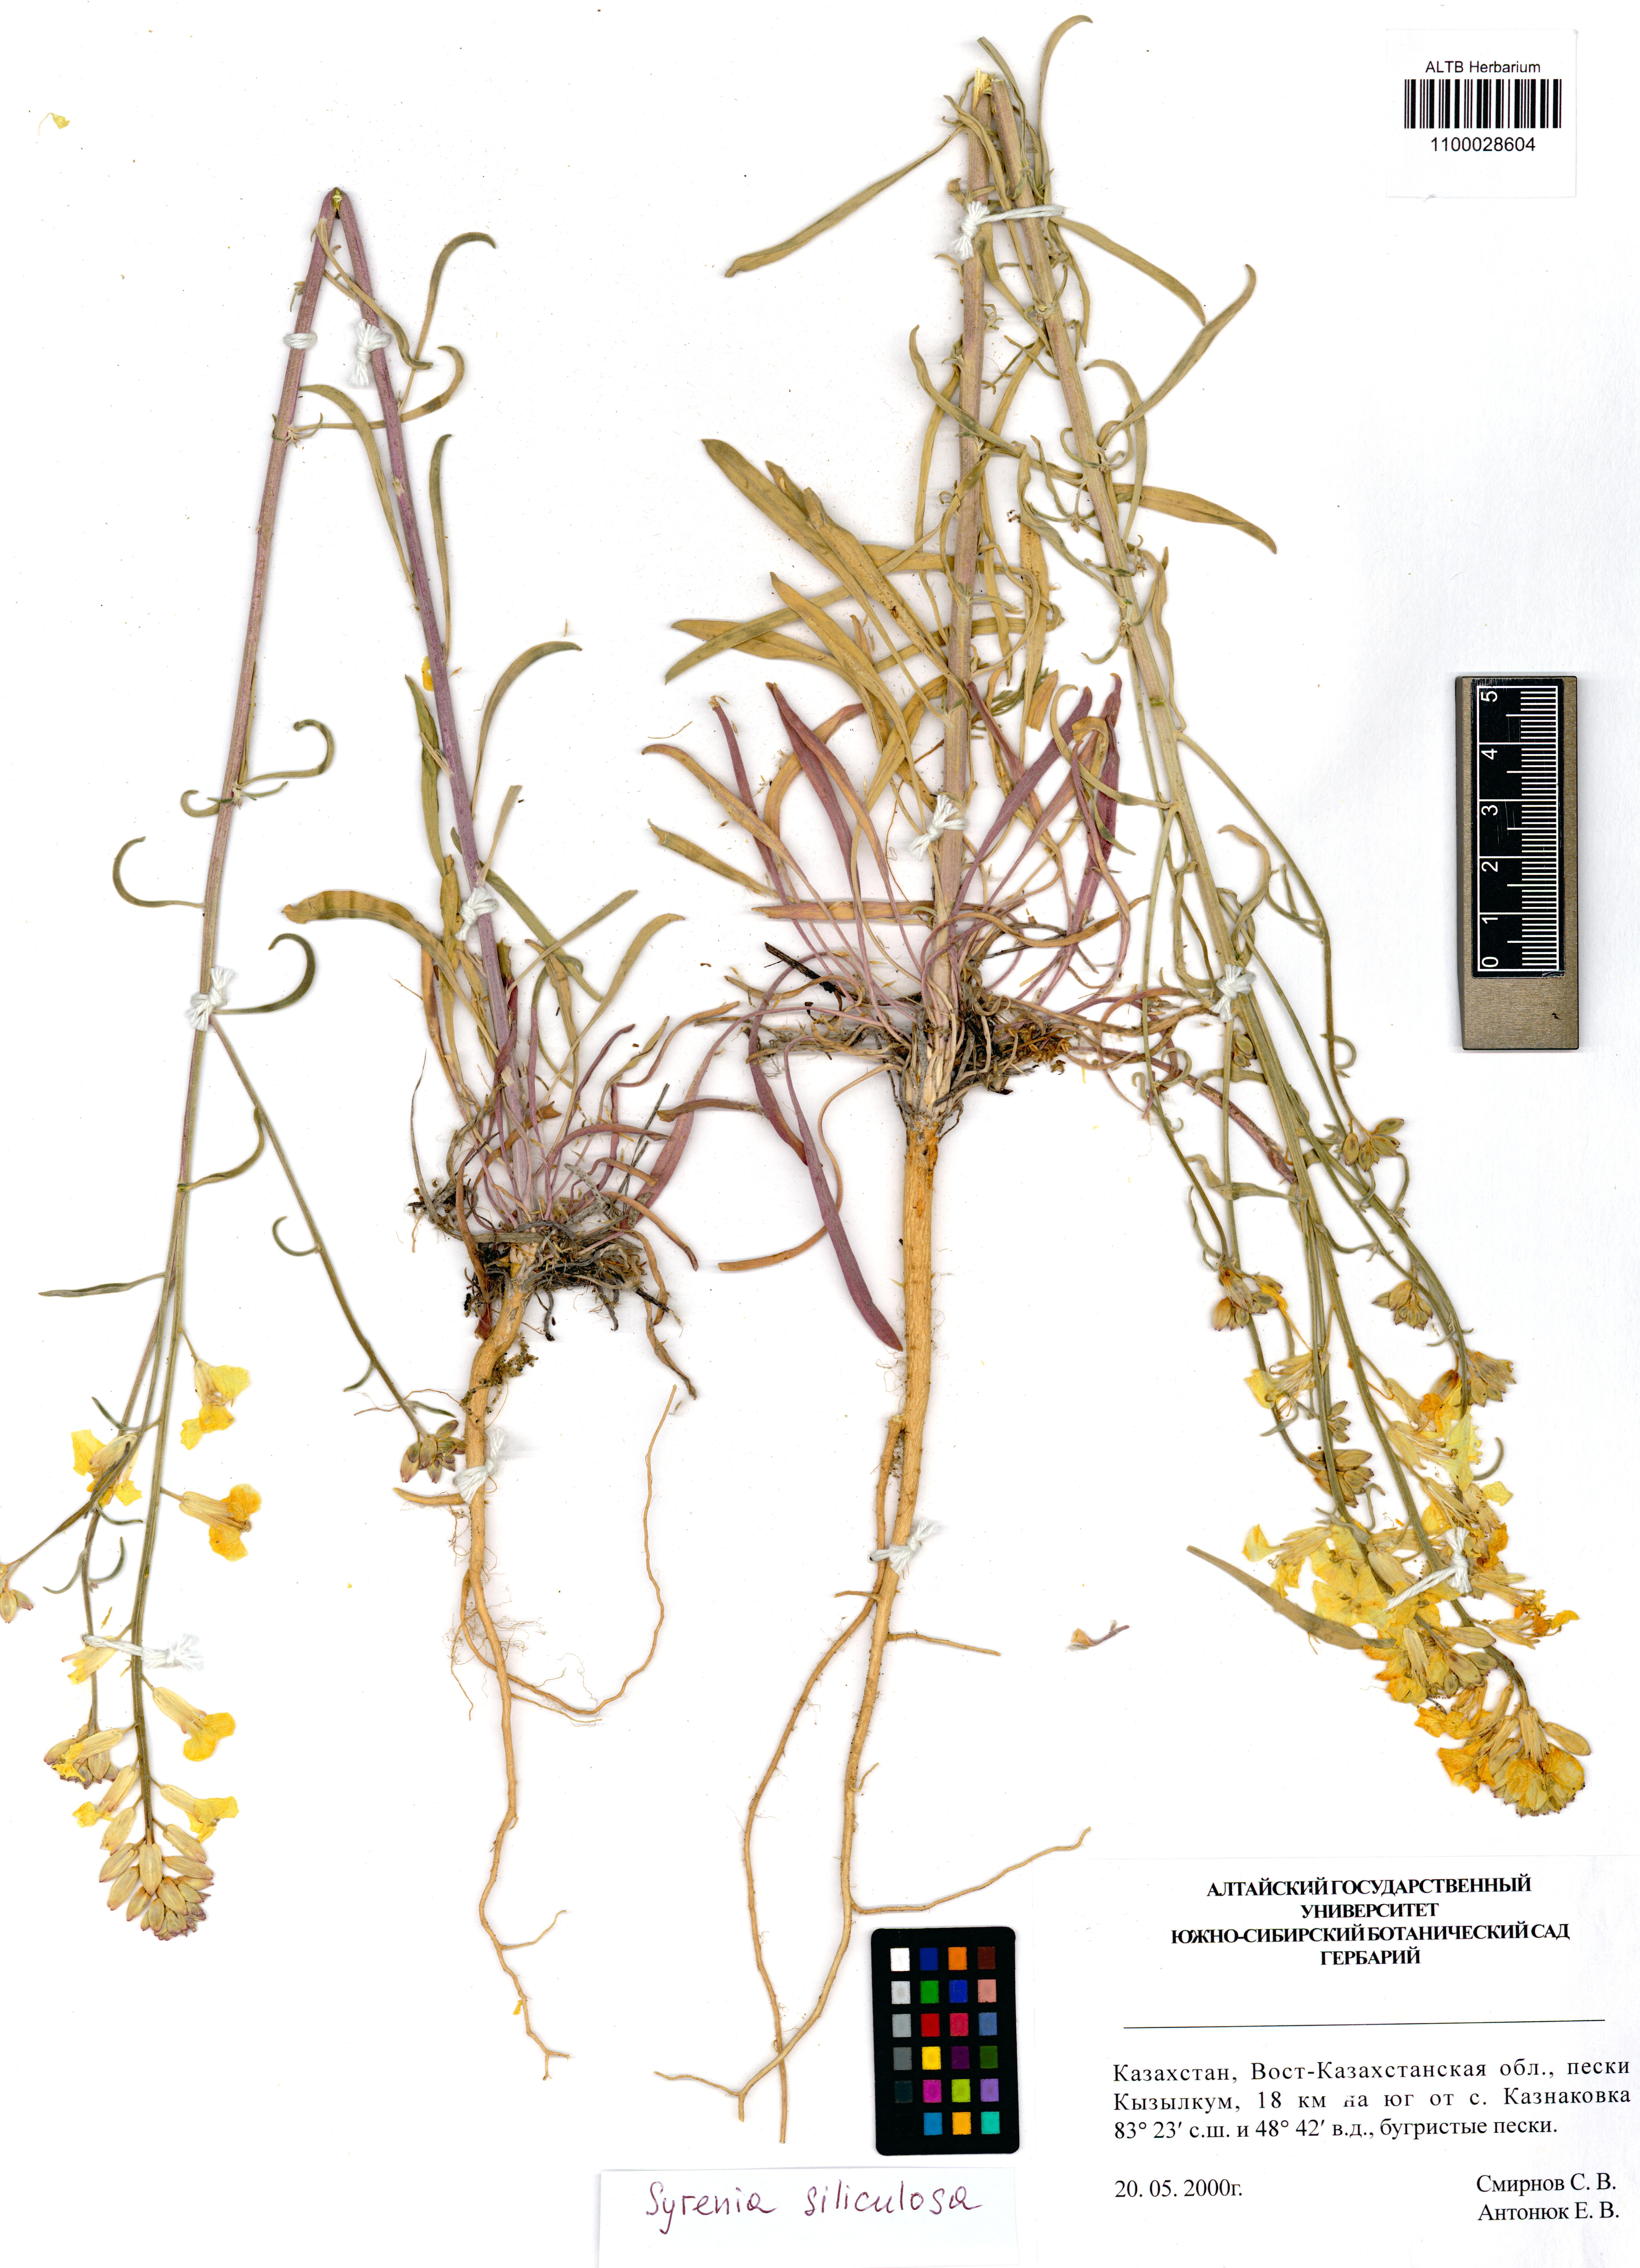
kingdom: Plantae
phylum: Tracheophyta
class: Magnoliopsida
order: Brassicales
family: Brassicaceae
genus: Syrenia
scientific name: Syrenia siliculosa
